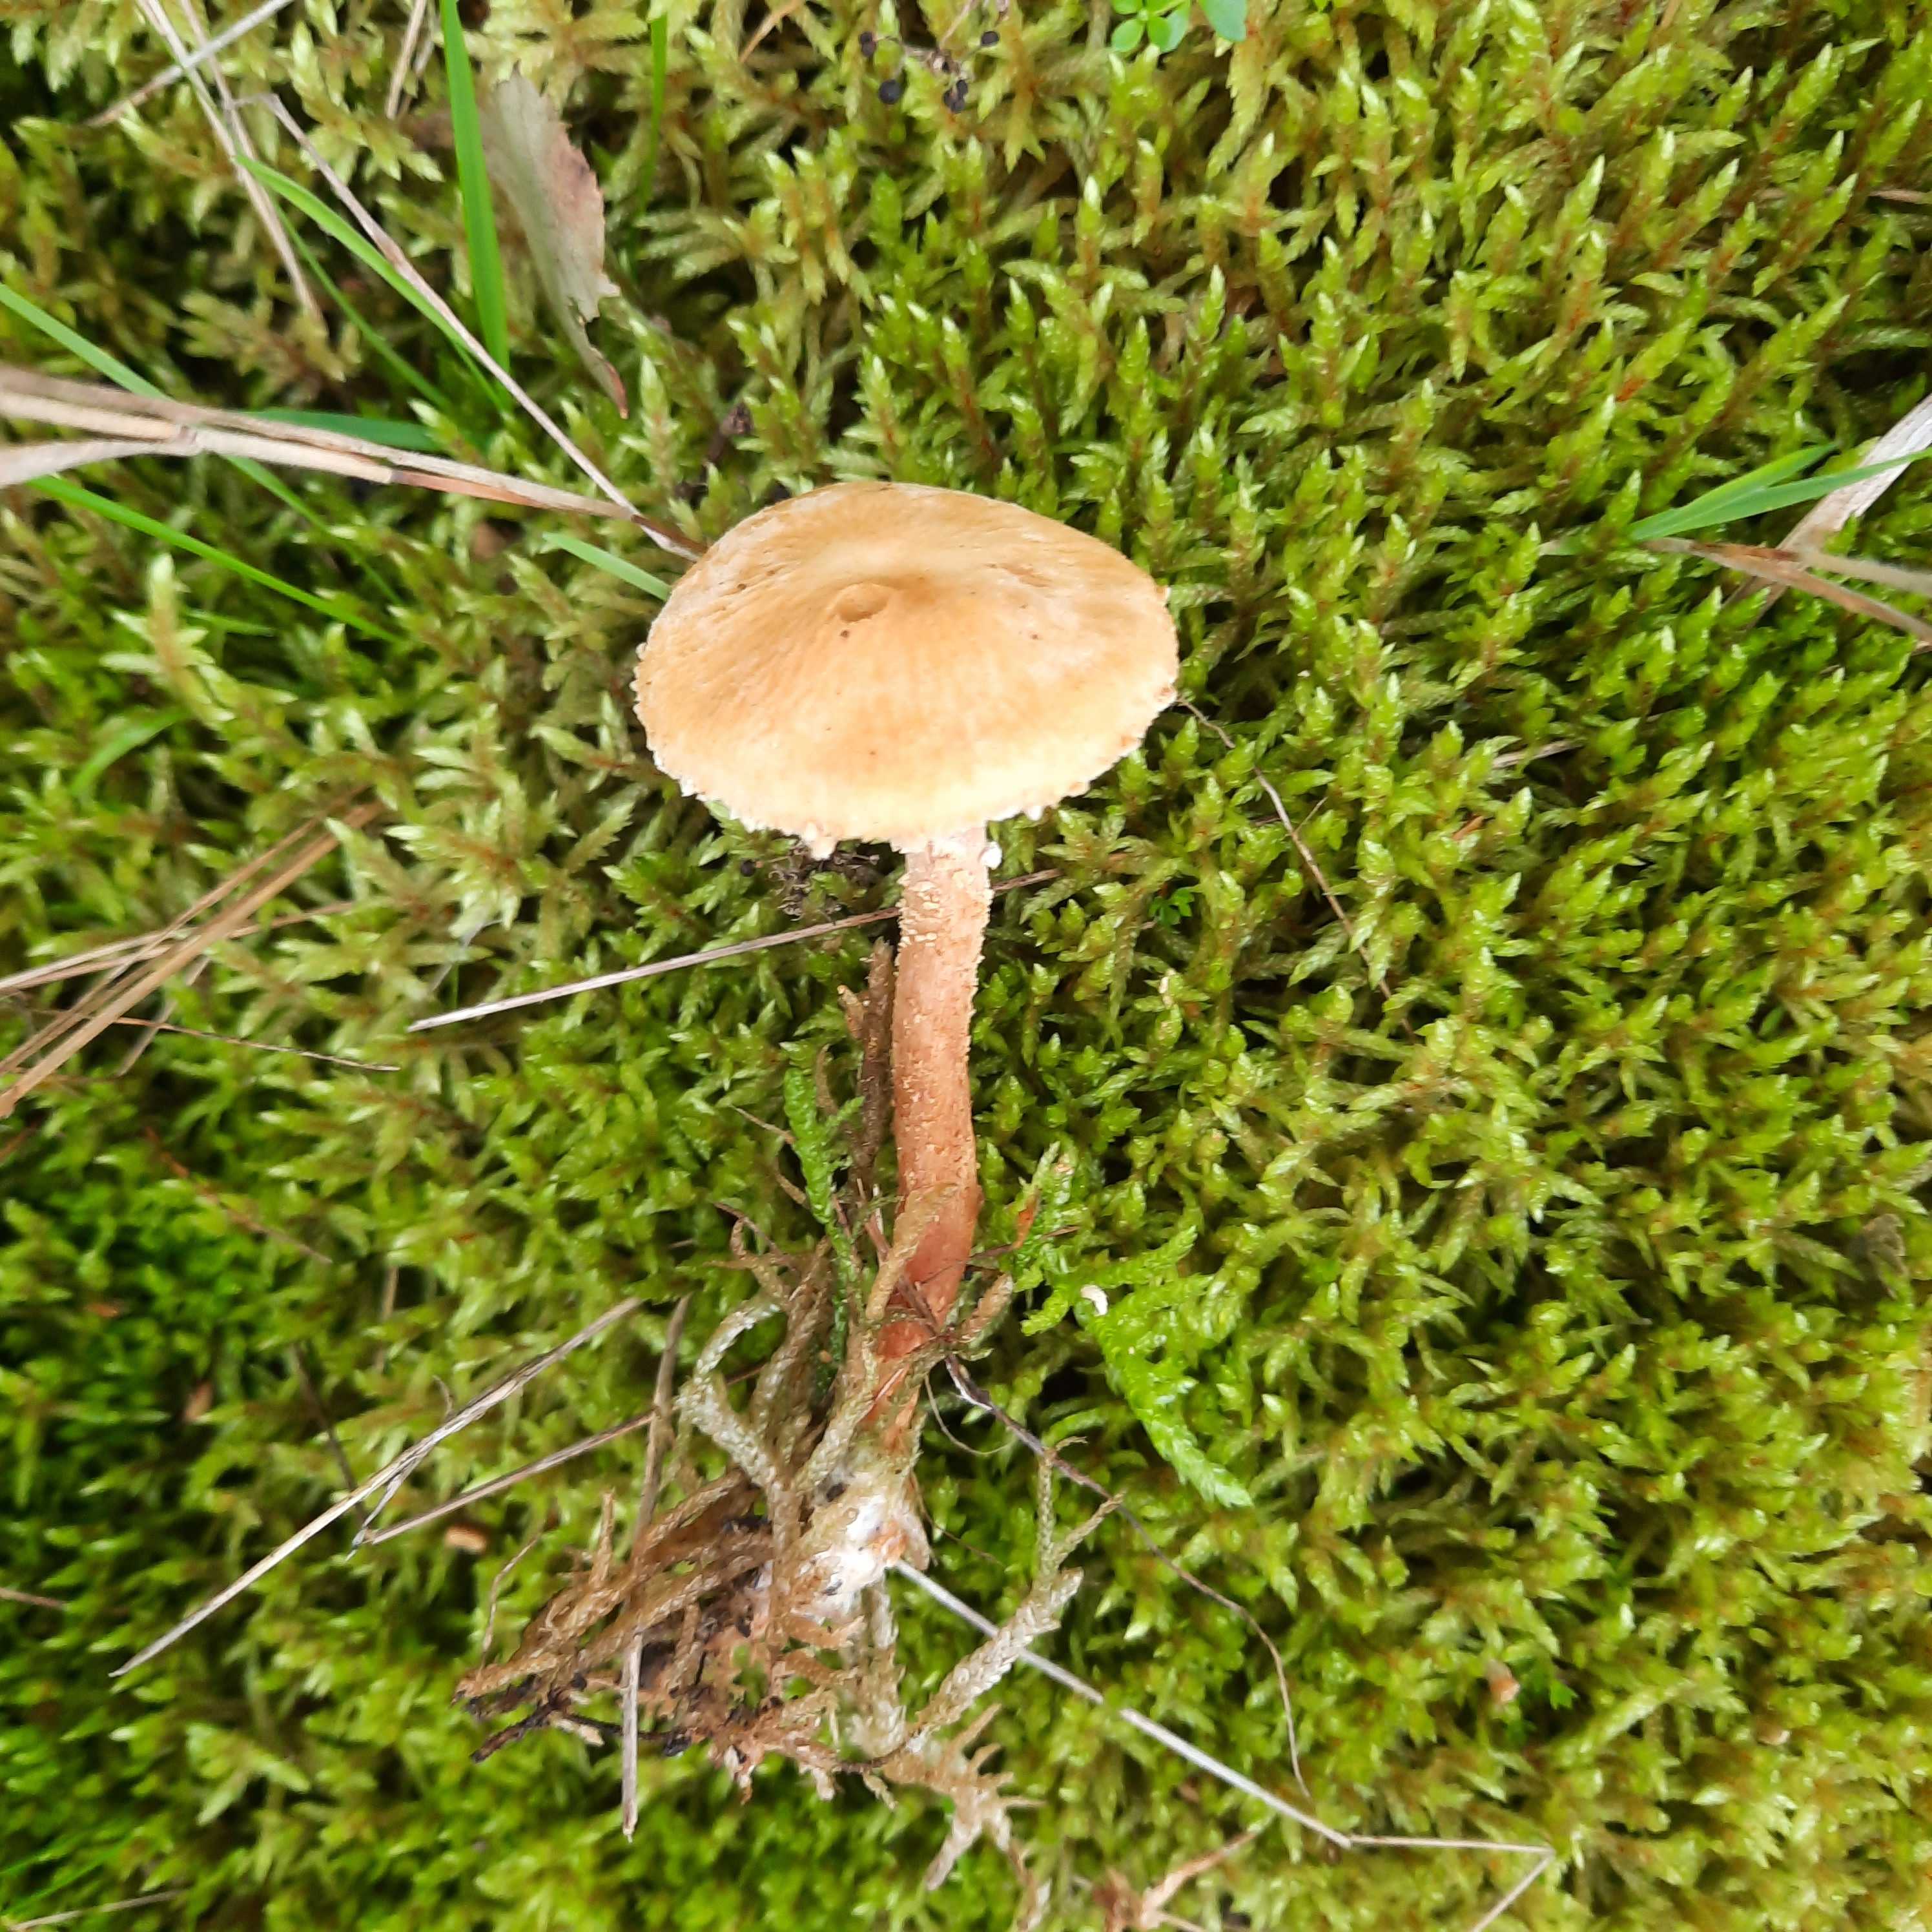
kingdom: Fungi
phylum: Basidiomycota
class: Agaricomycetes
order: Agaricales
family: Tricholomataceae
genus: Cystoderma
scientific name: Cystoderma amianthinum
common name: okkergul grynhat
